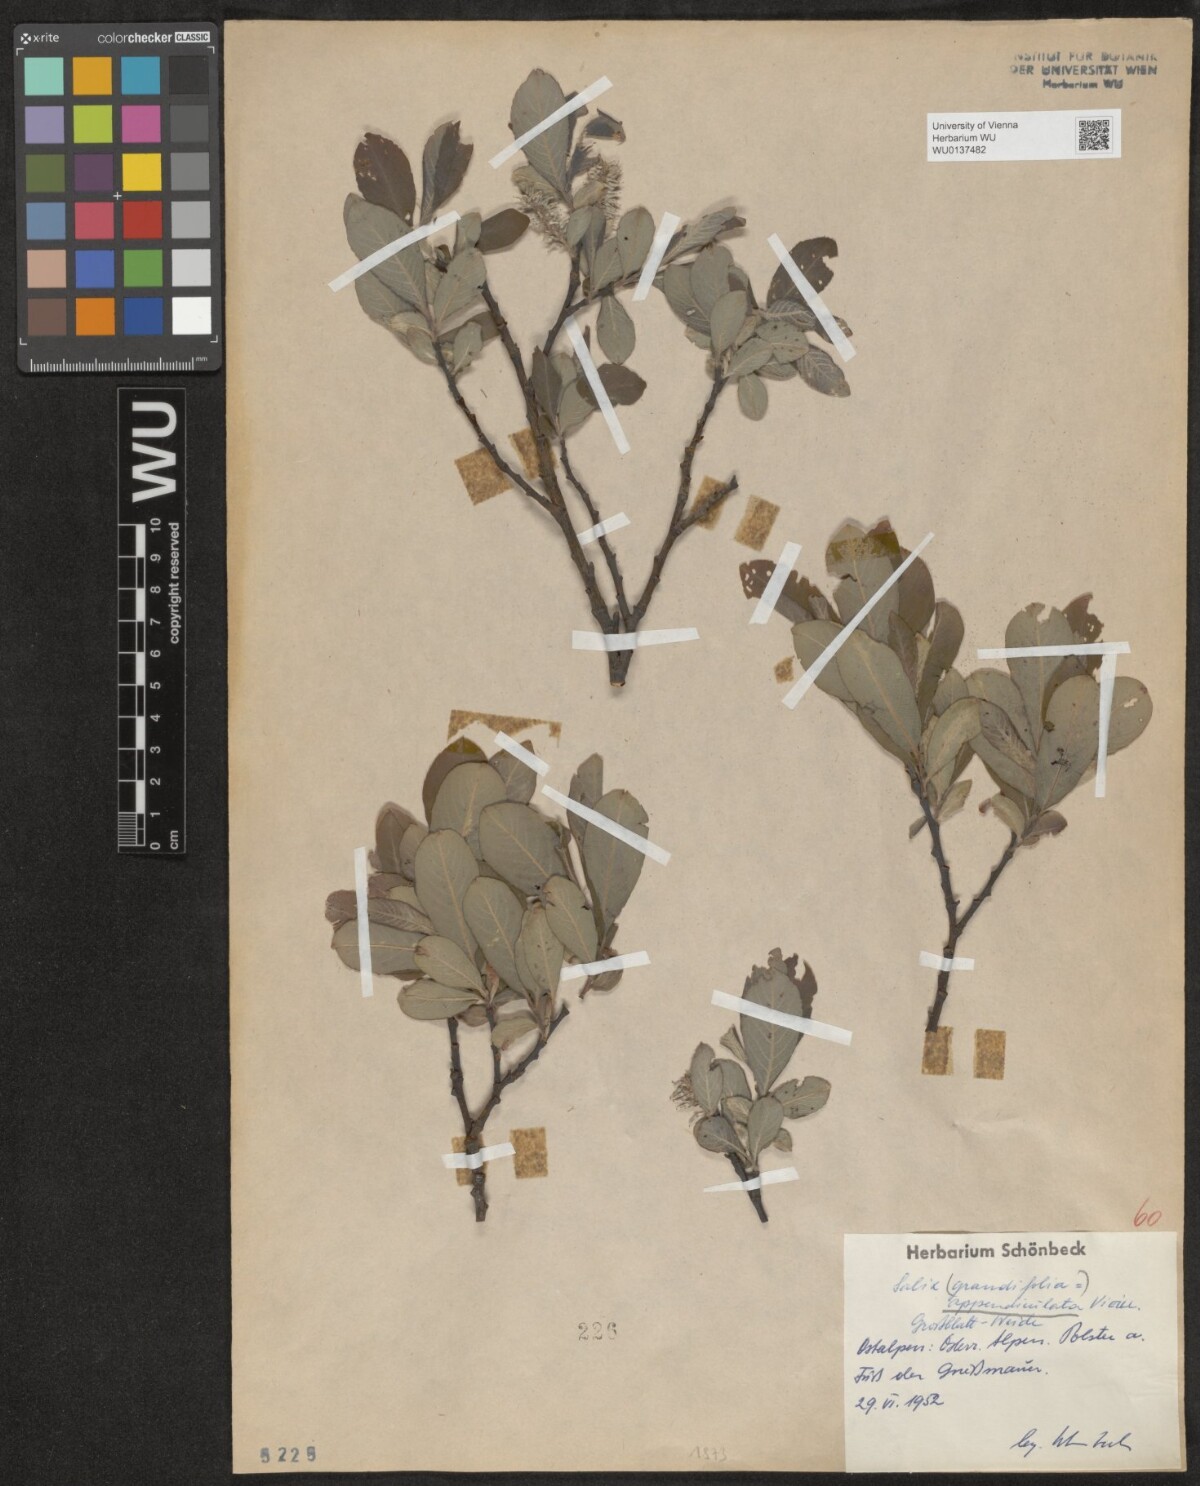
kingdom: Plantae
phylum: Tracheophyta
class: Magnoliopsida
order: Malpighiales
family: Salicaceae
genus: Salix
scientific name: Salix appendiculata
